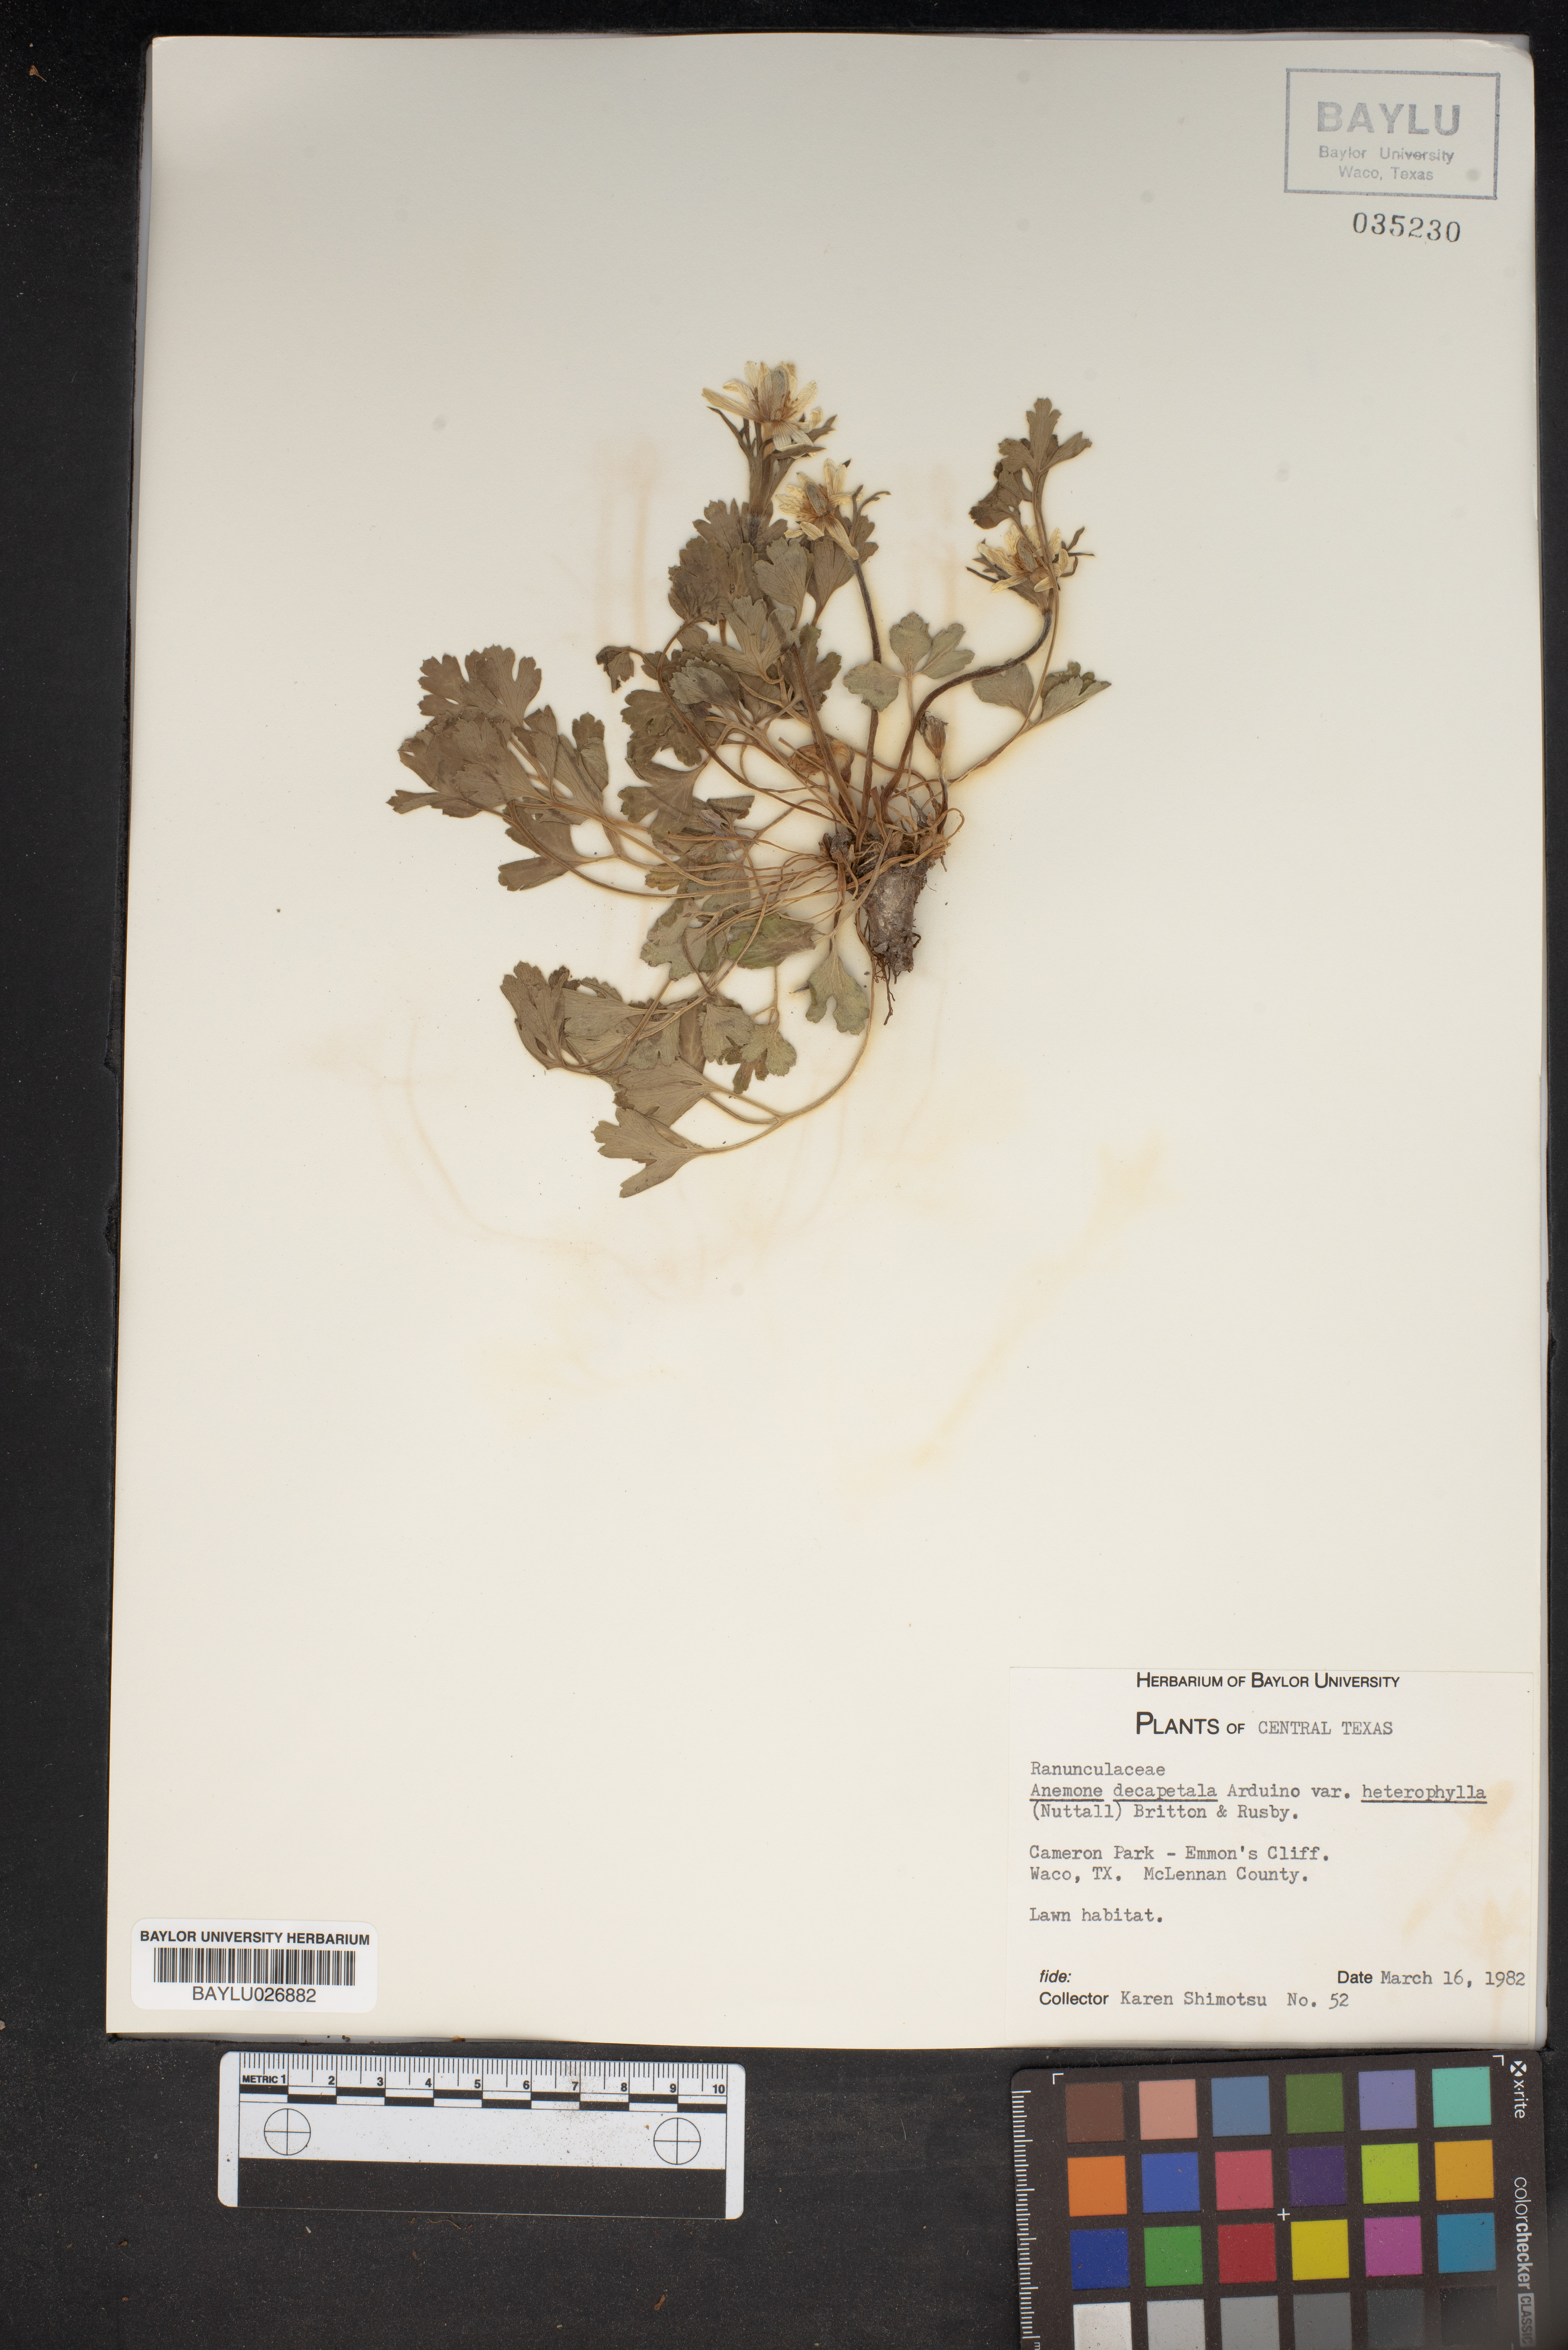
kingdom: Plantae
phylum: Tracheophyta
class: Magnoliopsida
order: Ranunculales
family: Ranunculaceae
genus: Anemone
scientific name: Anemone berlandieri
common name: Ten-petal anemone
